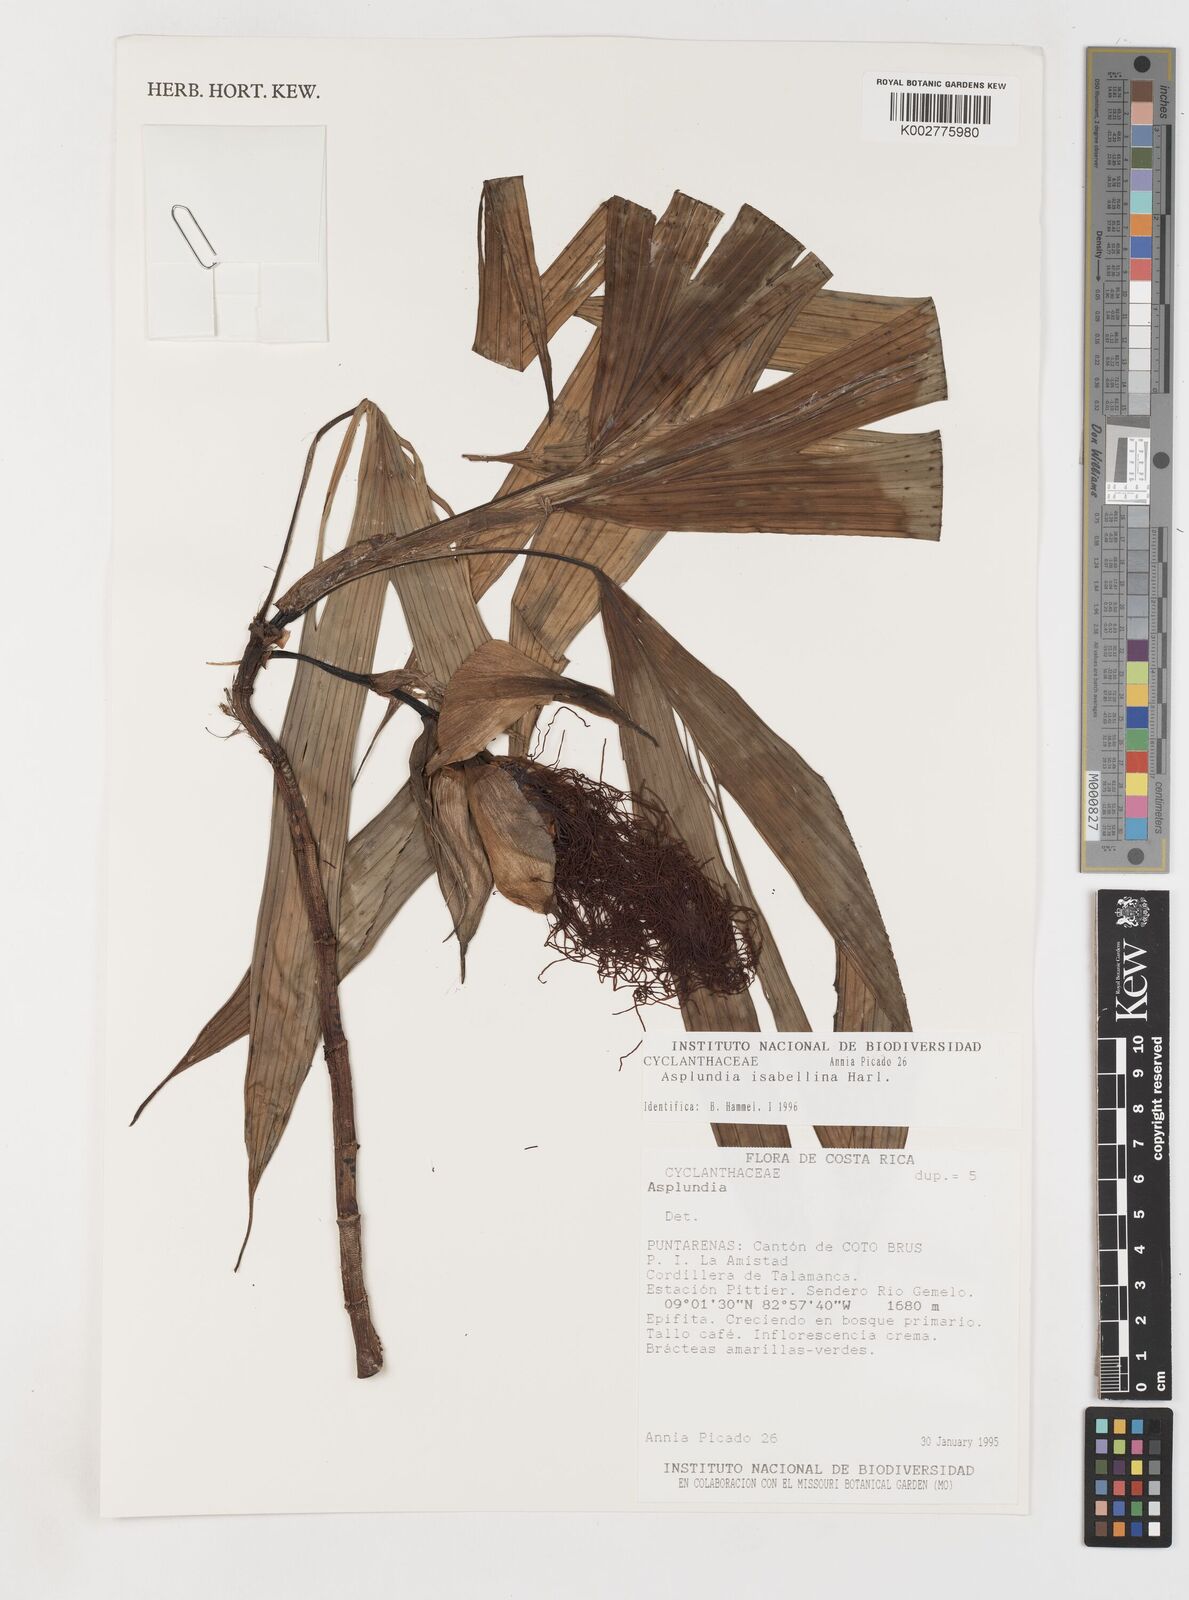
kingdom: Plantae
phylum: Tracheophyta
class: Liliopsida
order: Pandanales
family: Cyclanthaceae
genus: Asplundia
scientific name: Asplundia isabellina
